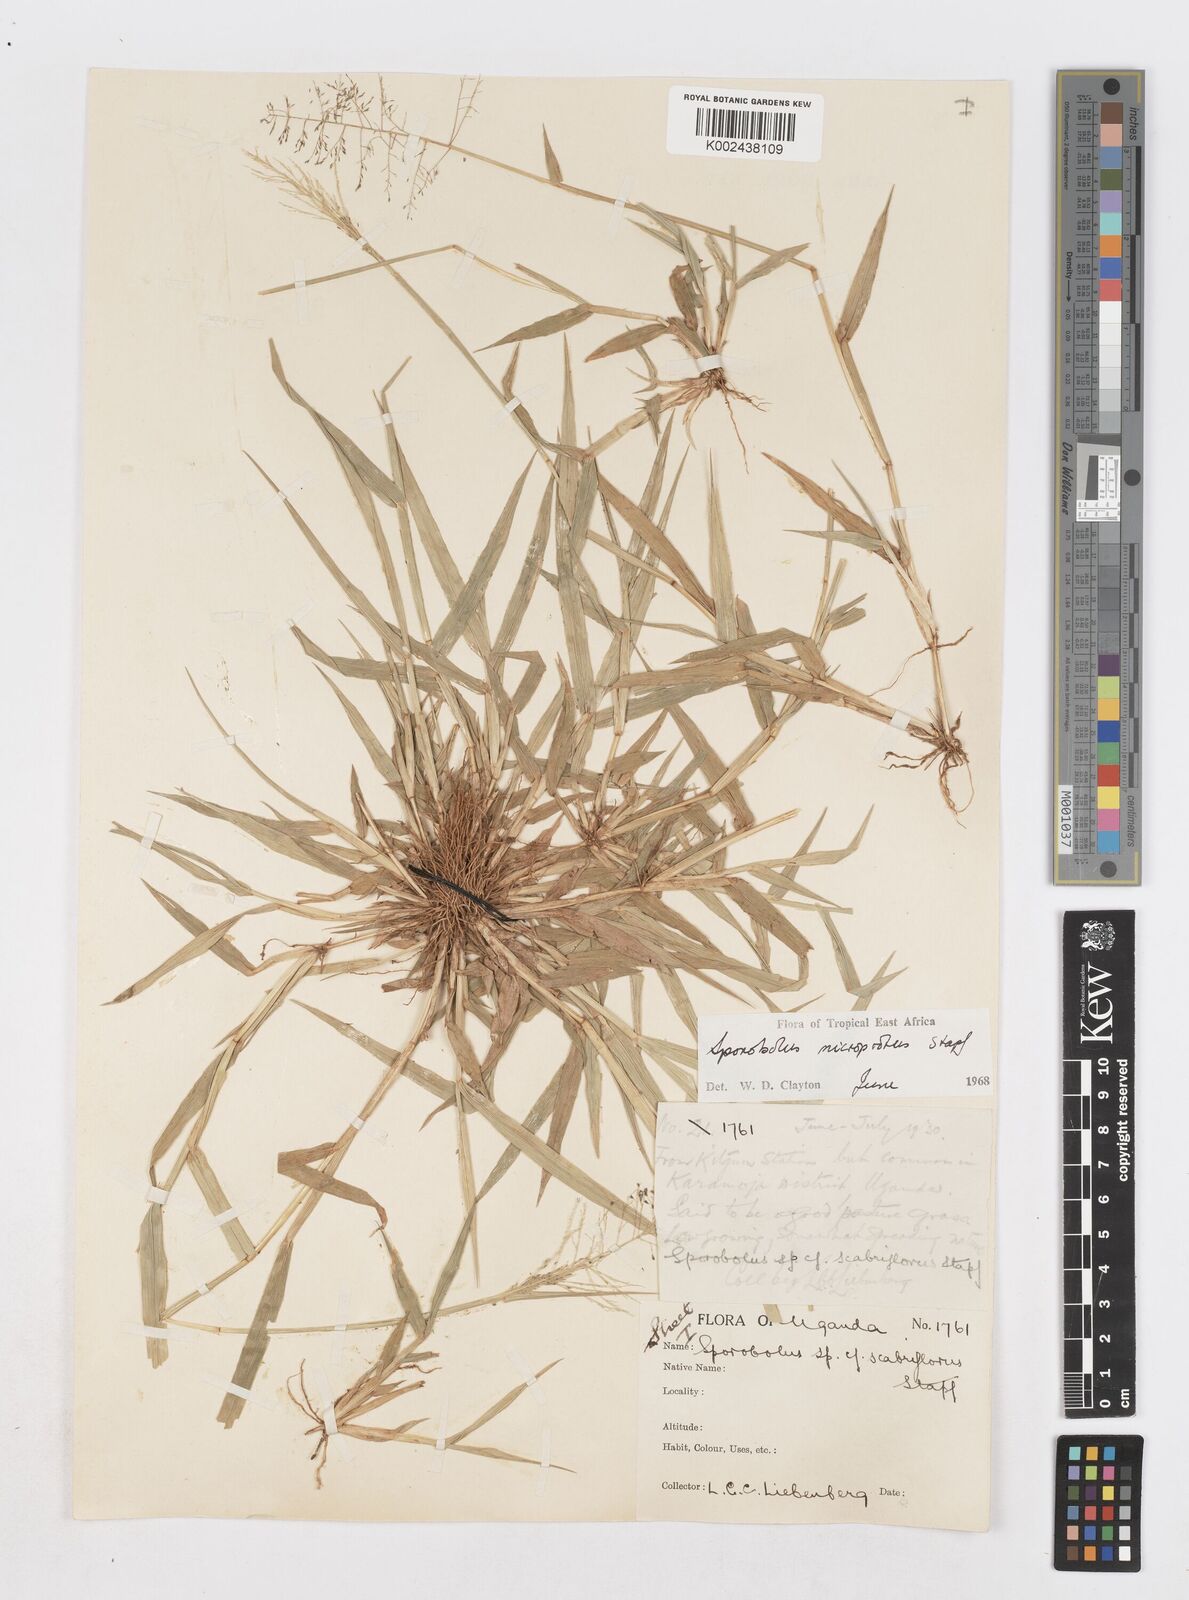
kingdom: Plantae
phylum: Tracheophyta
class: Liliopsida
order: Poales
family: Poaceae
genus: Sporobolus
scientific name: Sporobolus microprotus
